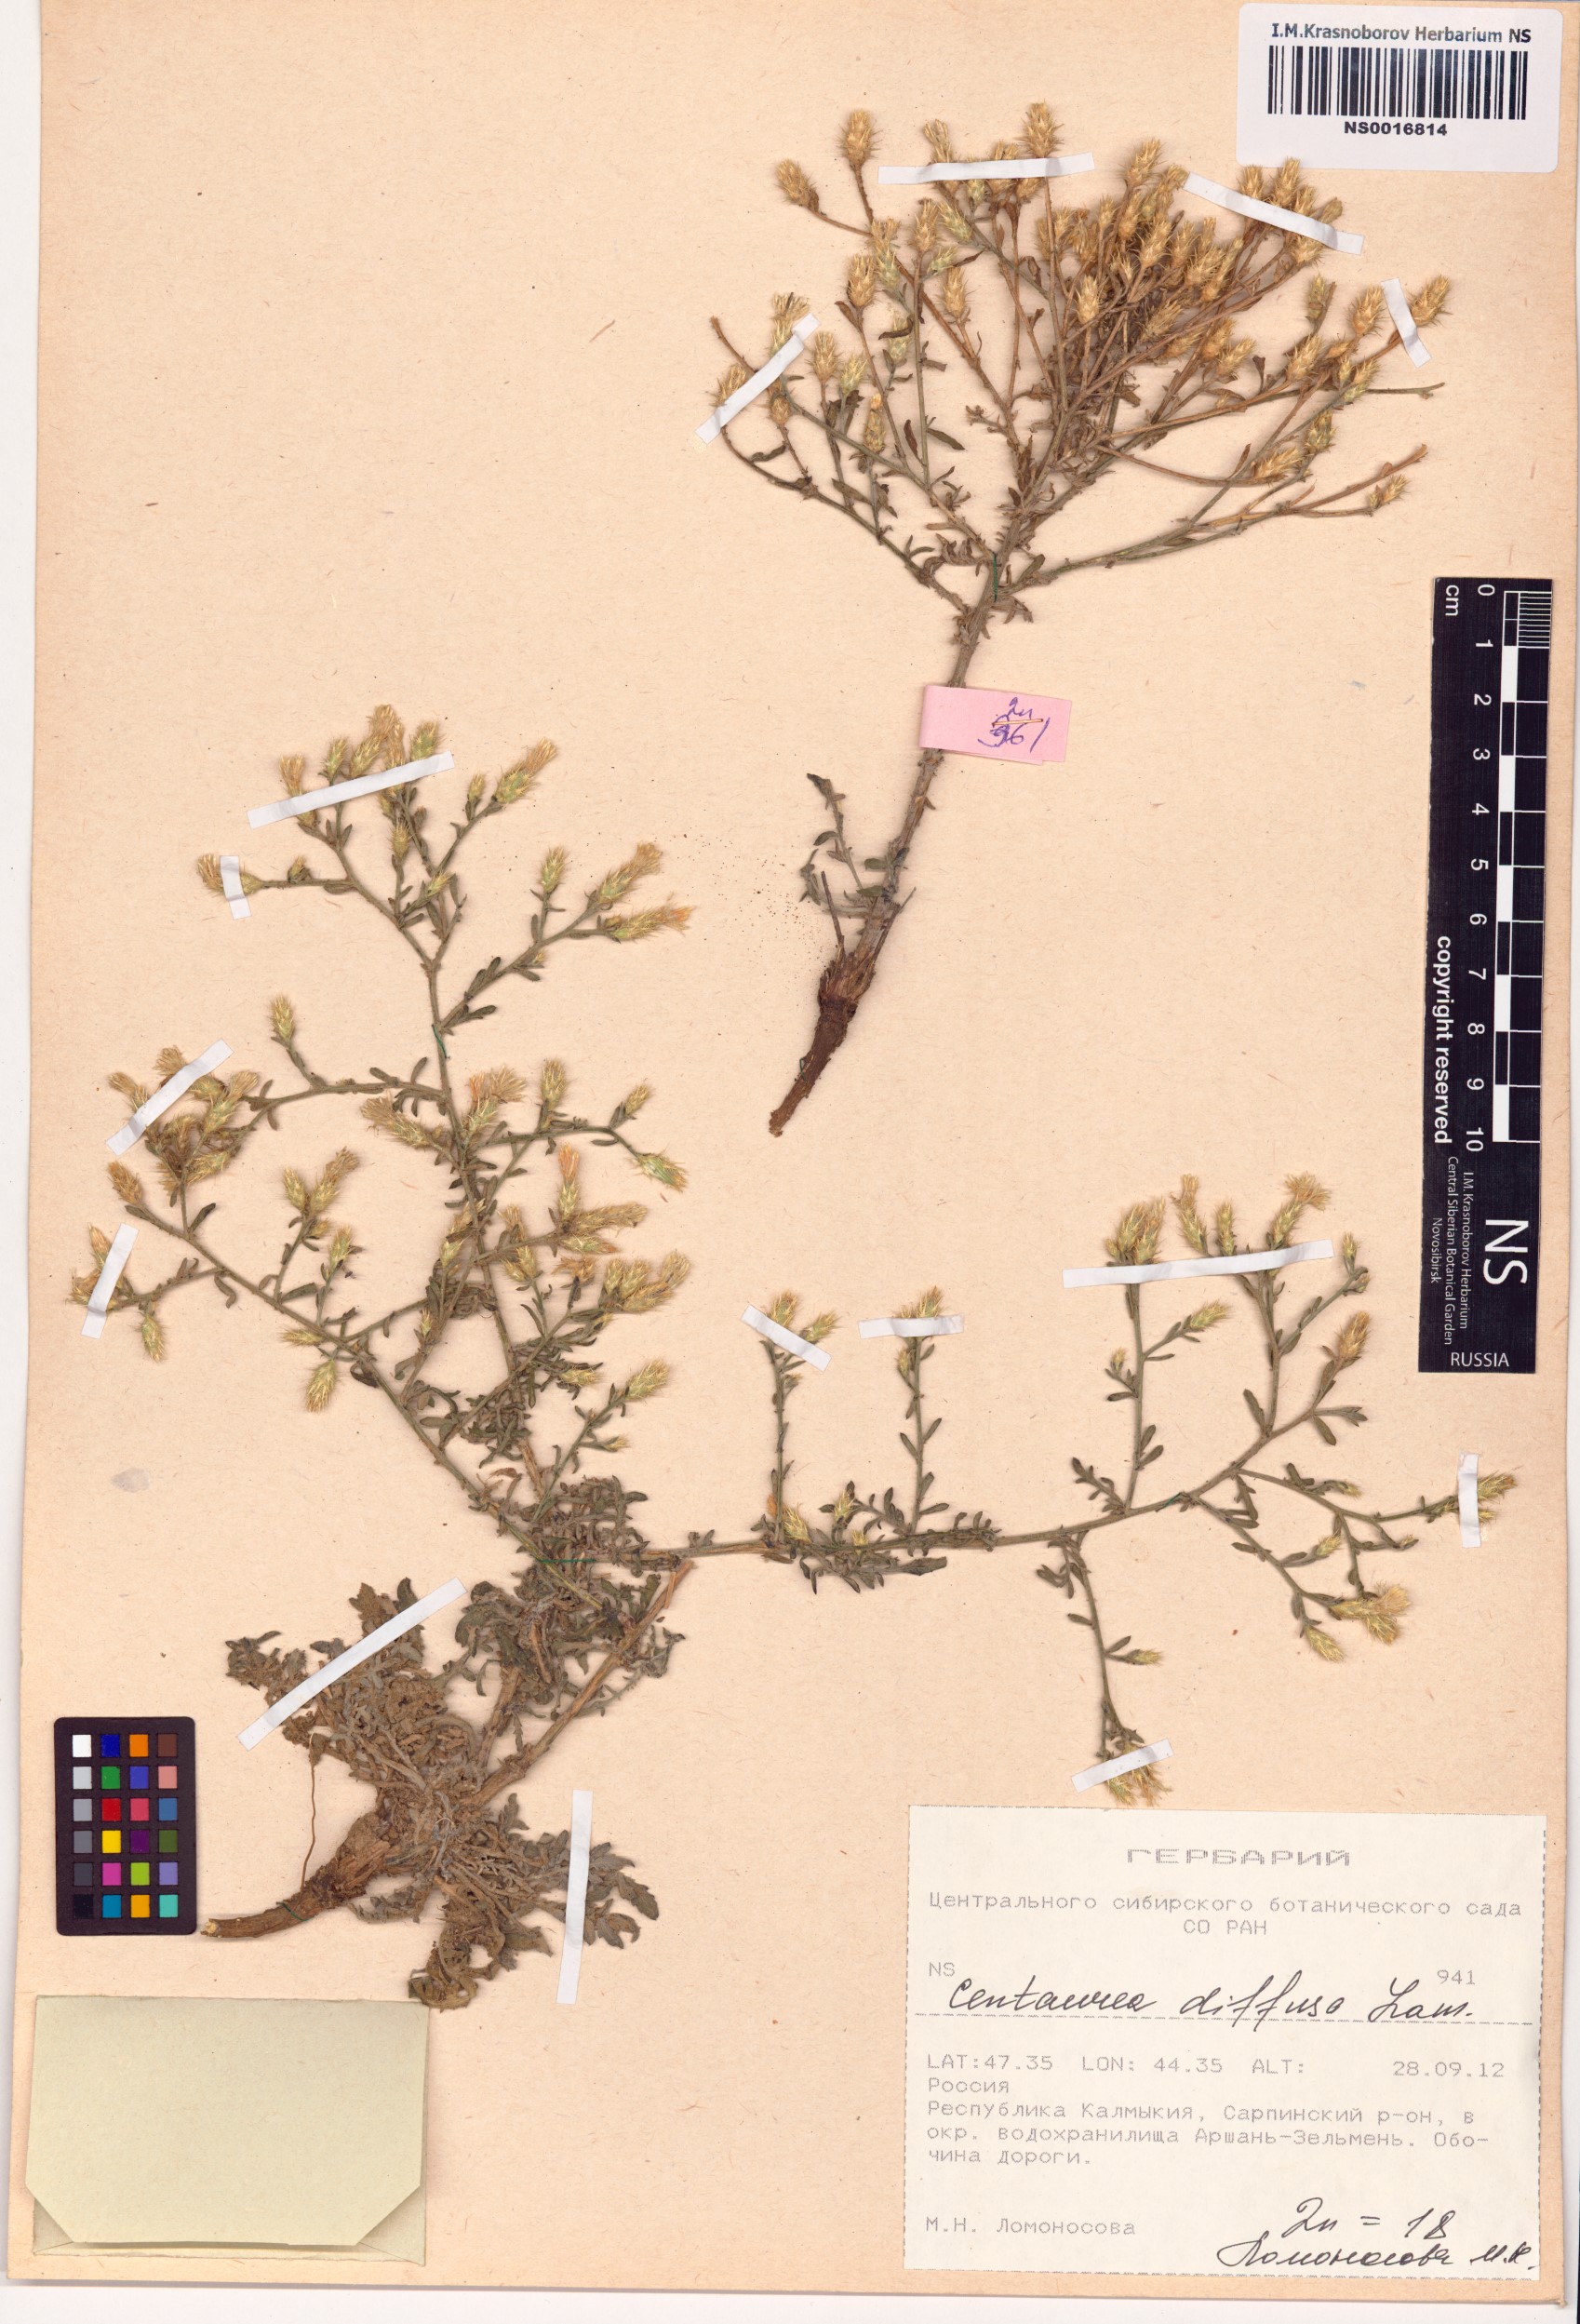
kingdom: Plantae
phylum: Tracheophyta
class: Magnoliopsida
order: Asterales
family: Asteraceae
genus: Centaurea
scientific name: Centaurea diffusa
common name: Diffuse knapweed
